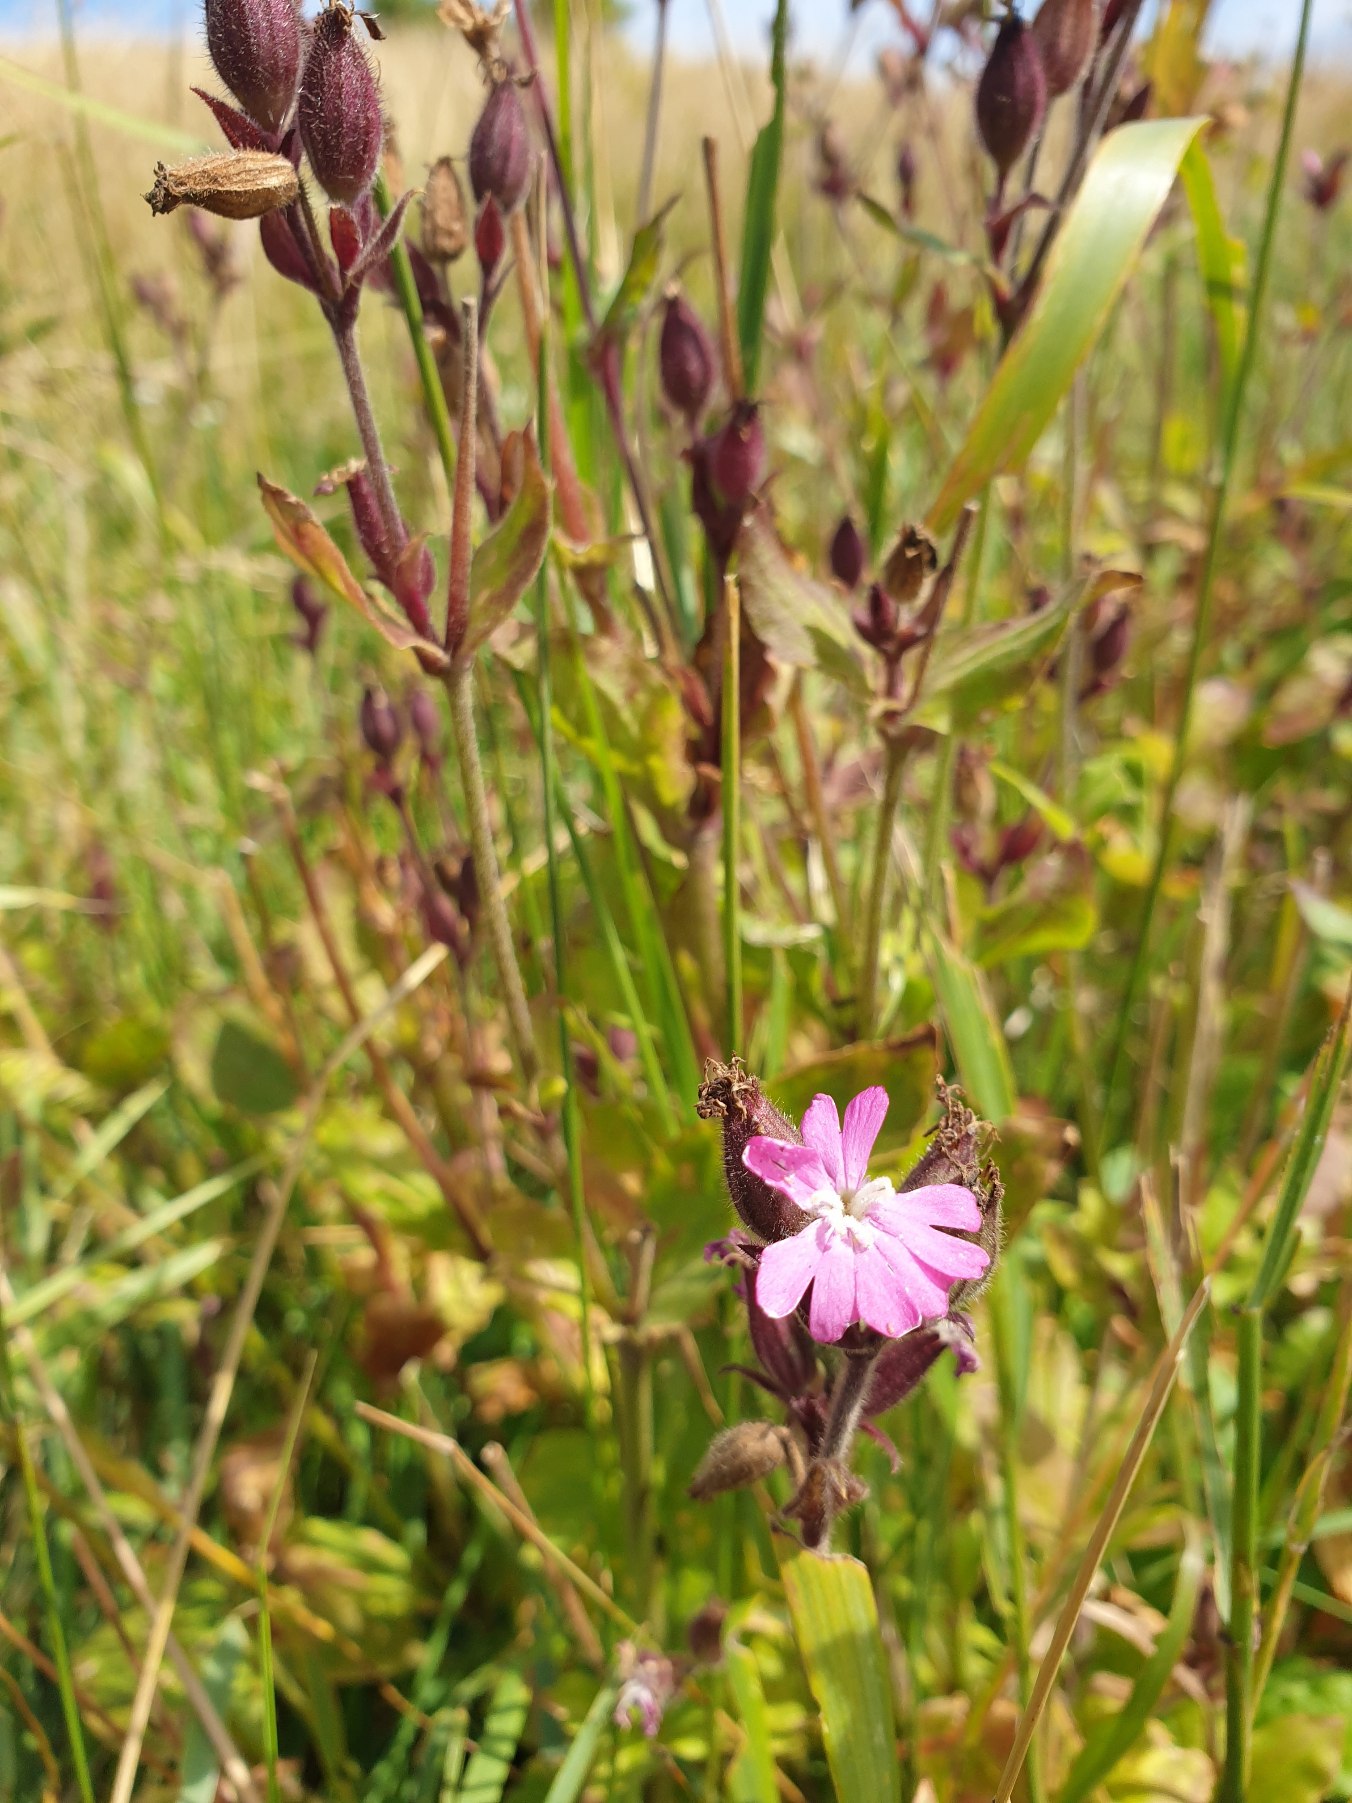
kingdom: Plantae
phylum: Tracheophyta
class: Magnoliopsida
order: Caryophyllales
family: Caryophyllaceae
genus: Silene
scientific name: Silene dioica
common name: Dagpragtstjerne
